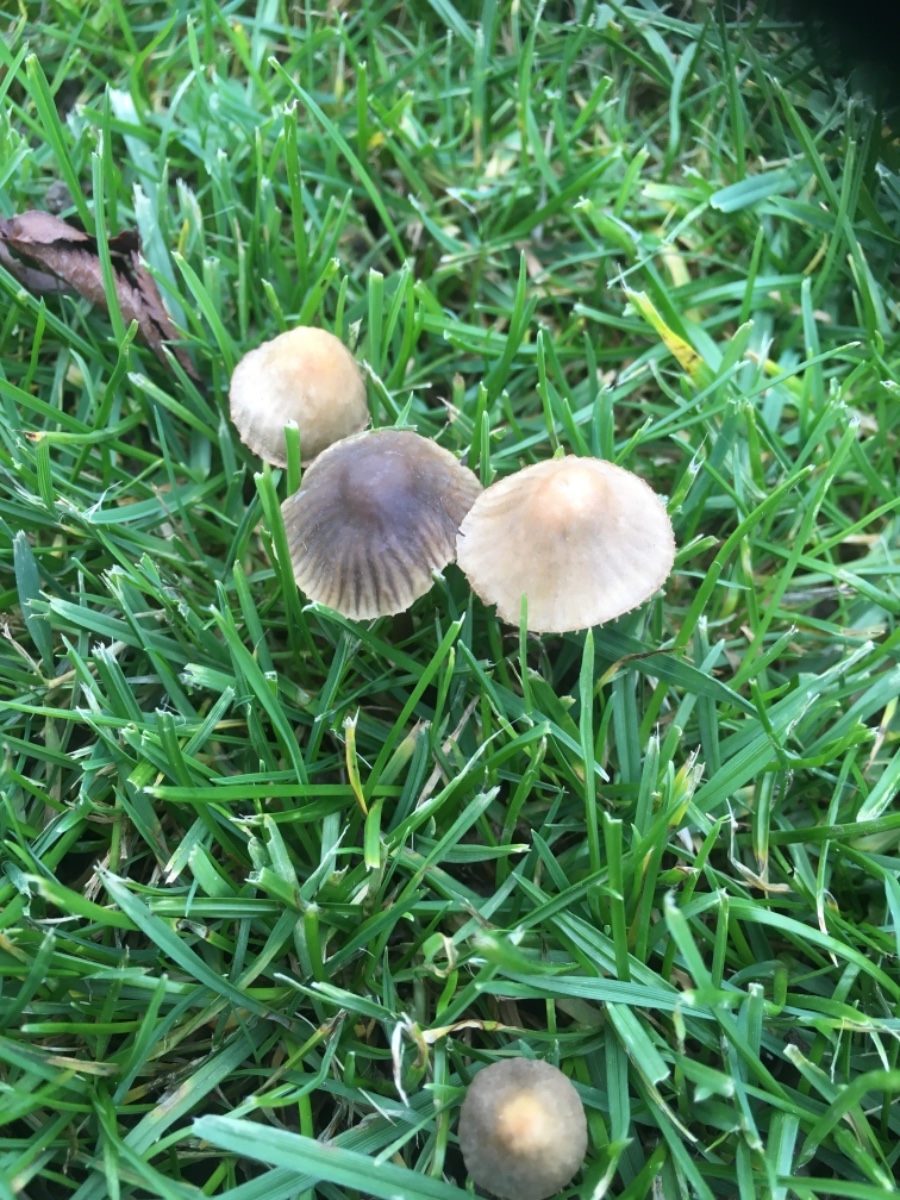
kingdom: Fungi
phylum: Basidiomycota
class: Agaricomycetes
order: Agaricales
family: Mycenaceae
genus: Mycena
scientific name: Mycena olivaceomarginata
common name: brunægget huesvamp
